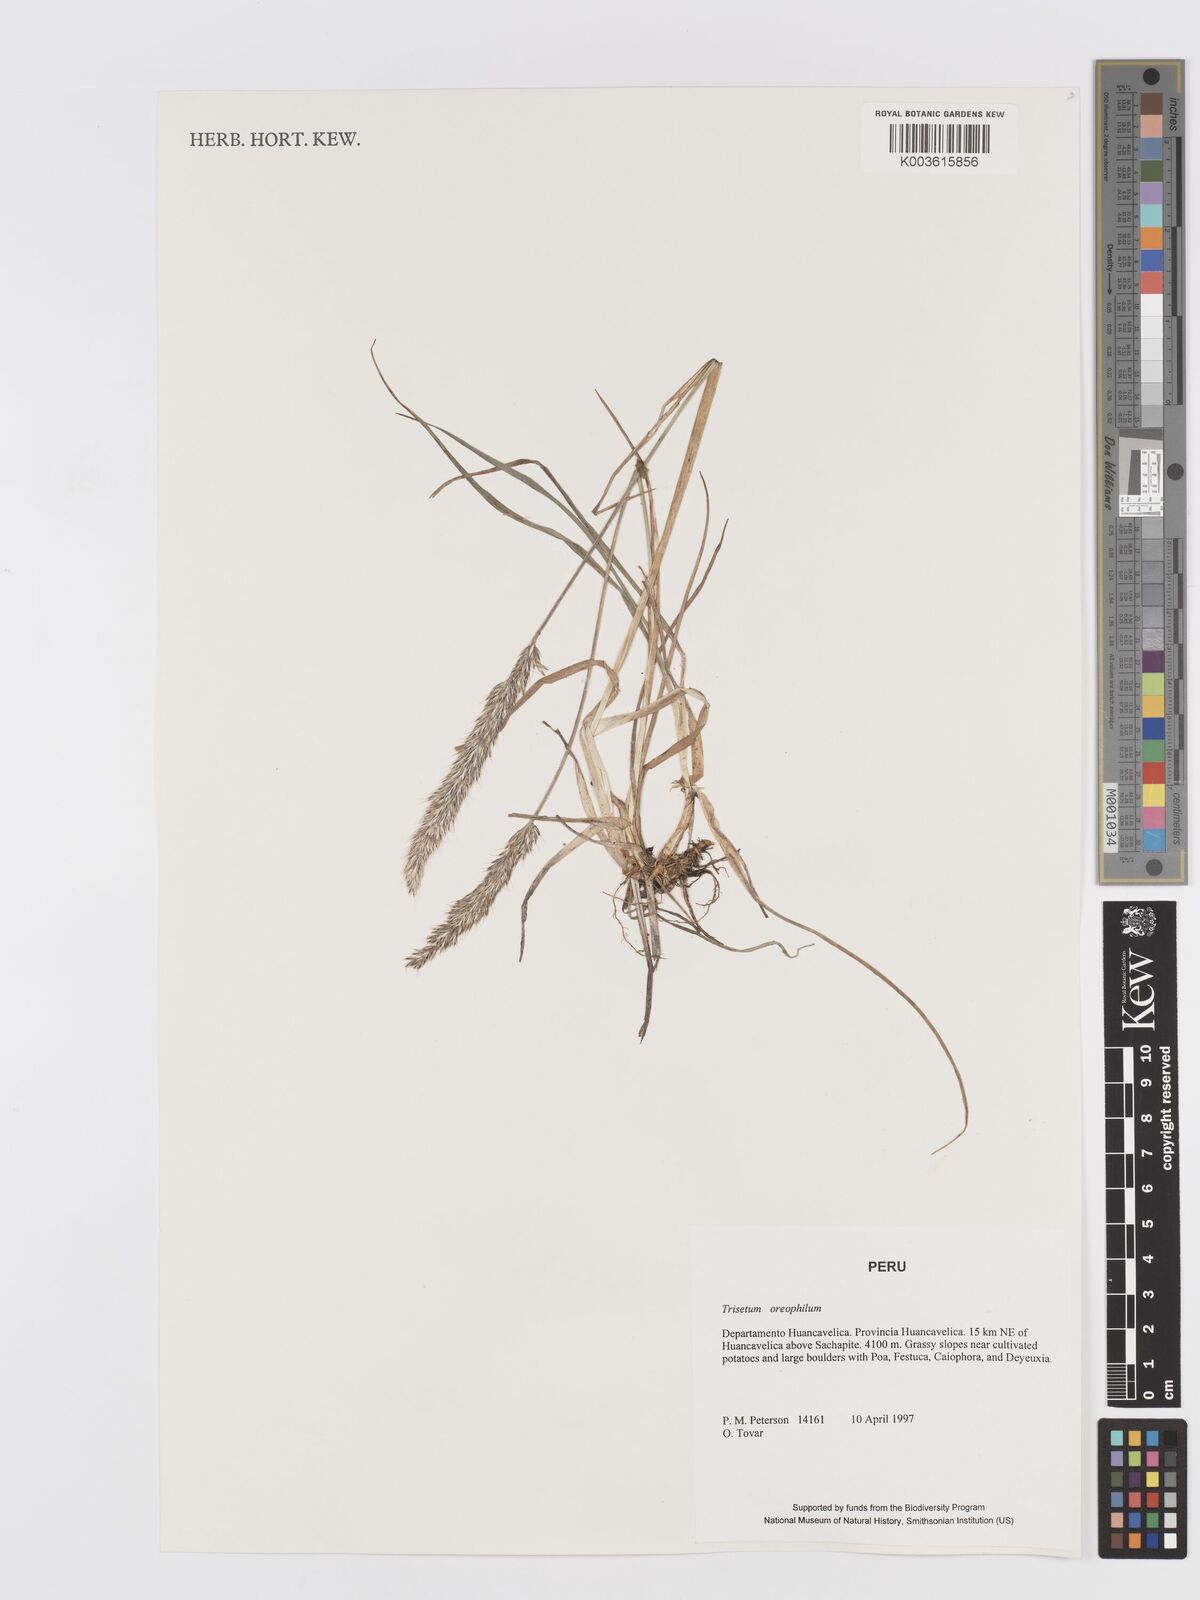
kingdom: Plantae
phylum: Tracheophyta
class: Liliopsida
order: Poales
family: Poaceae
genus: Koeleria
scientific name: Koeleria oreophila
